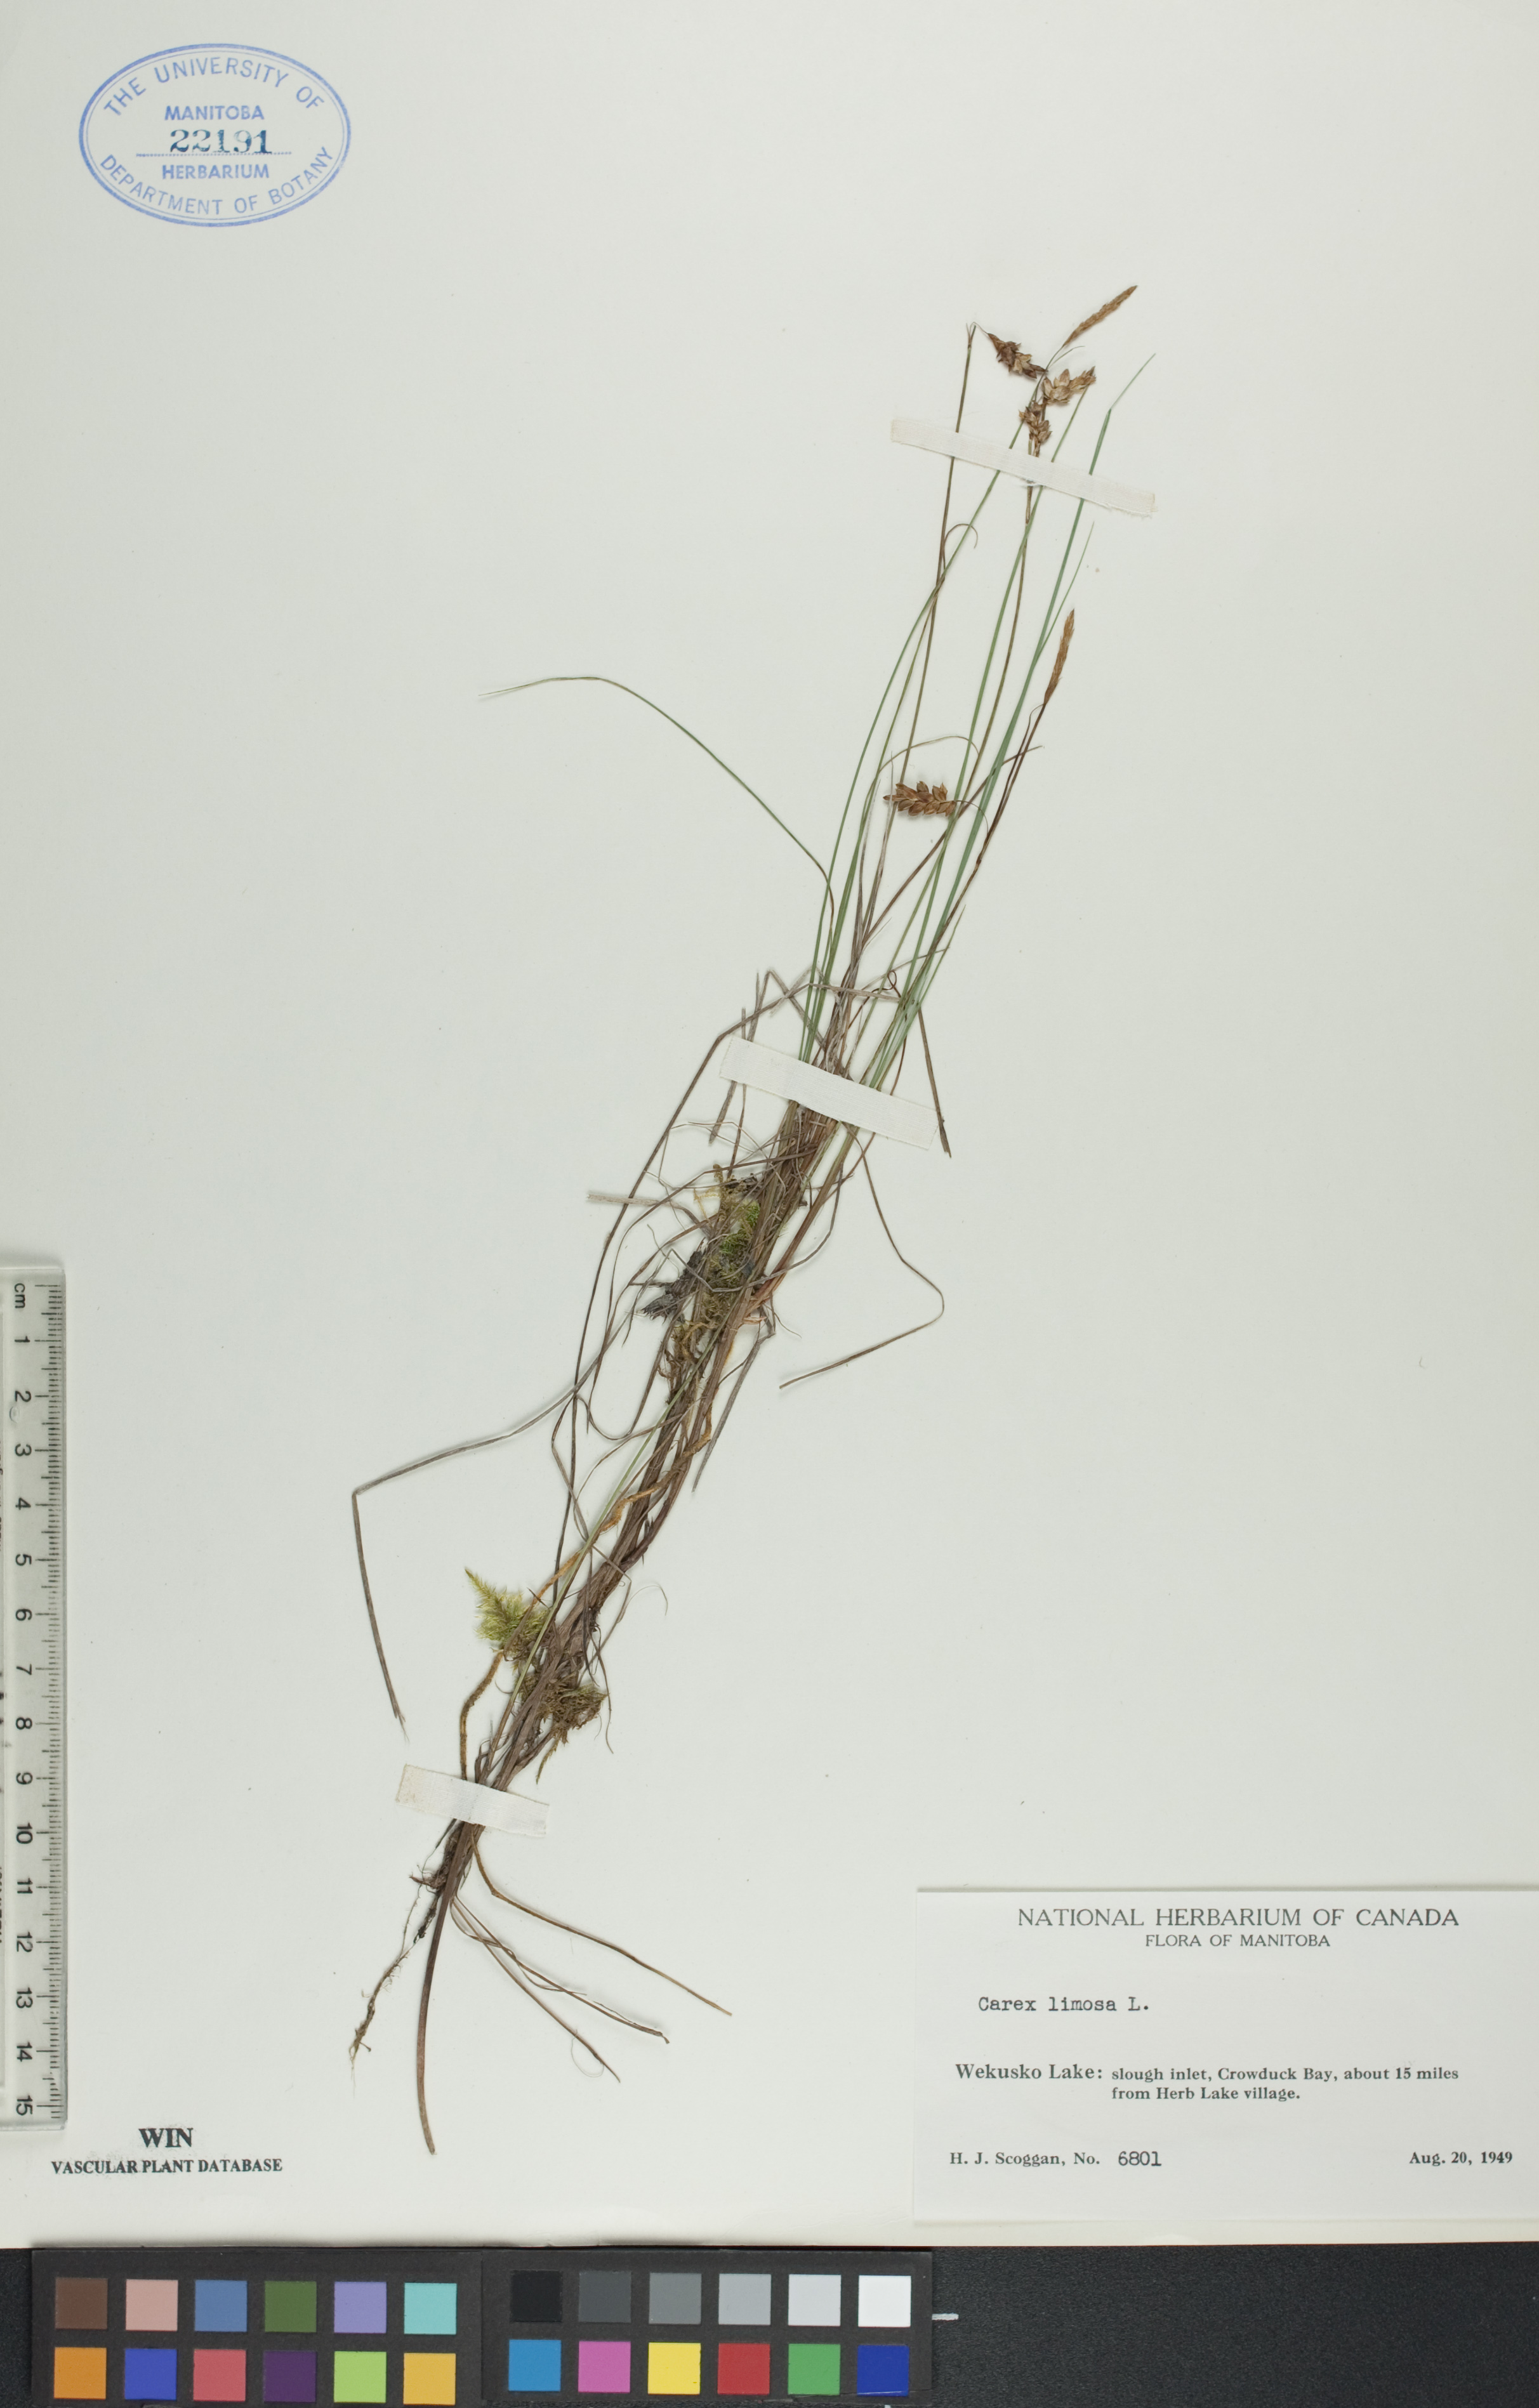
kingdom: Plantae
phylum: Tracheophyta
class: Liliopsida
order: Poales
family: Cyperaceae
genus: Carex
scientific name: Carex limosa
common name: Bog sedge
